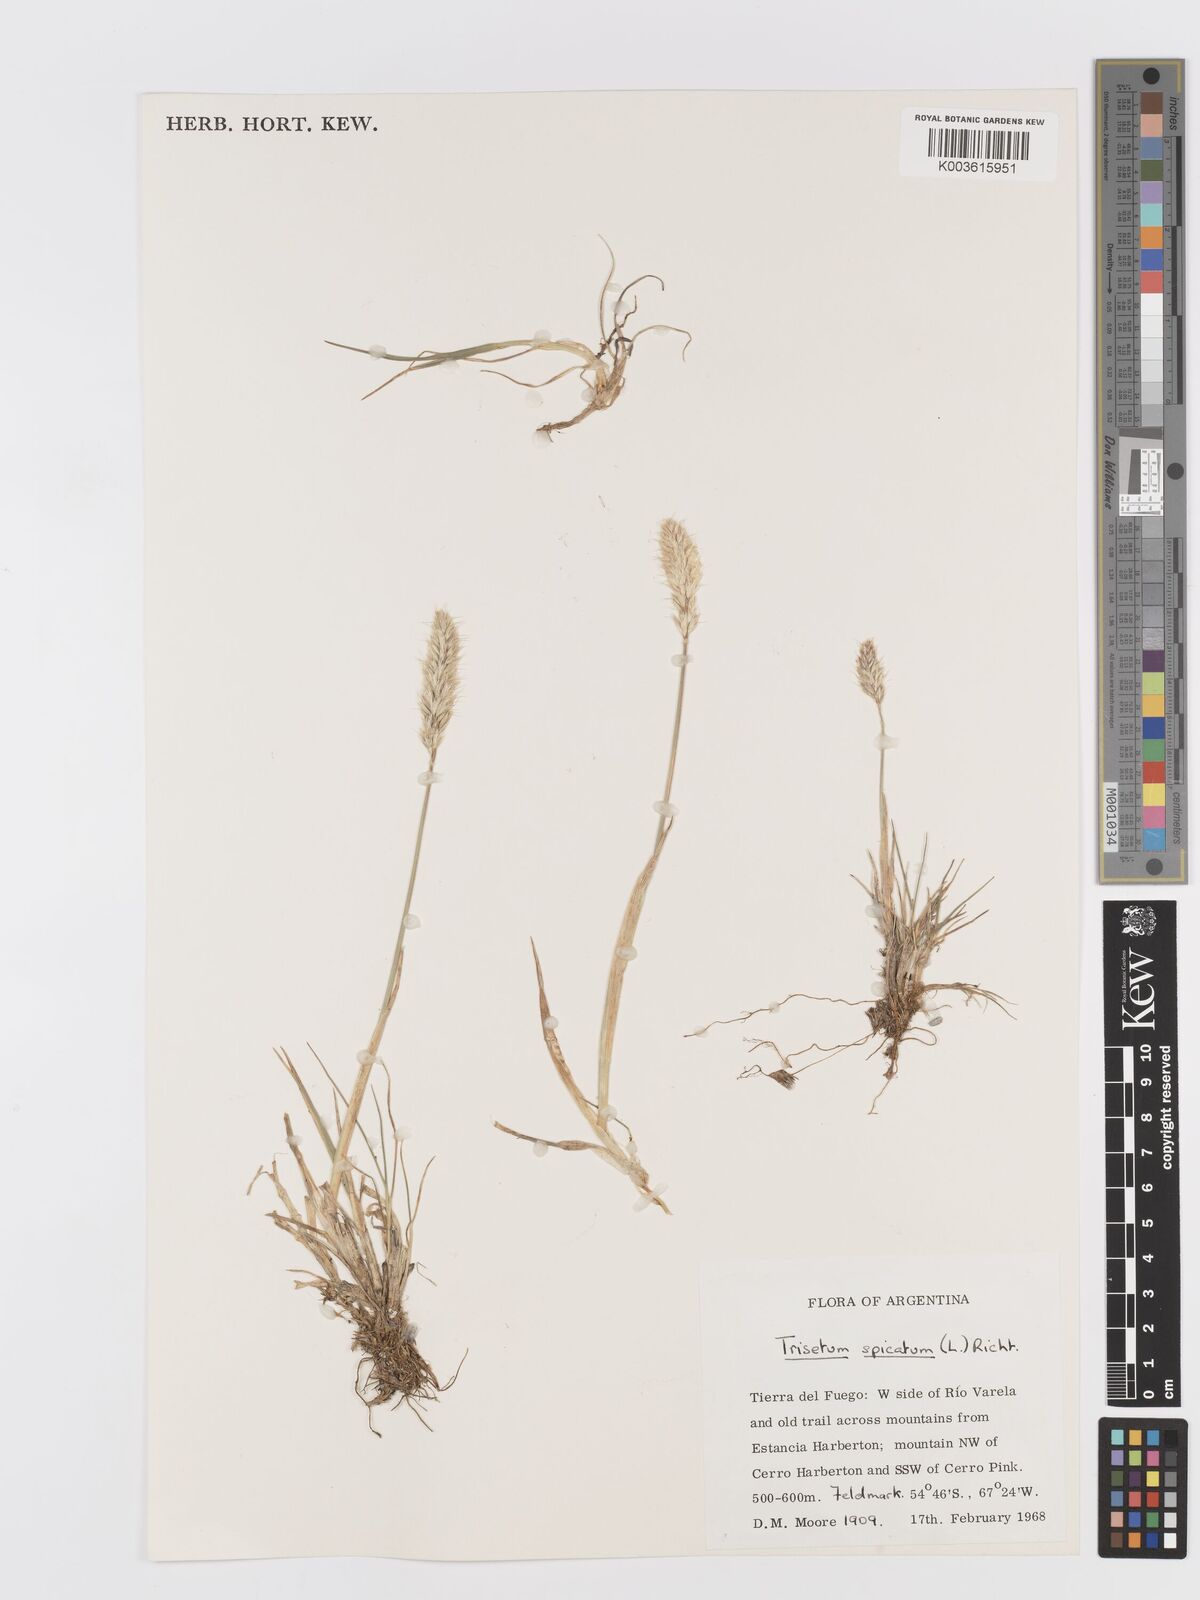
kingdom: Plantae
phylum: Tracheophyta
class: Liliopsida
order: Poales
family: Poaceae
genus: Koeleria
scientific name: Koeleria spicata
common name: Mountain trisetum
